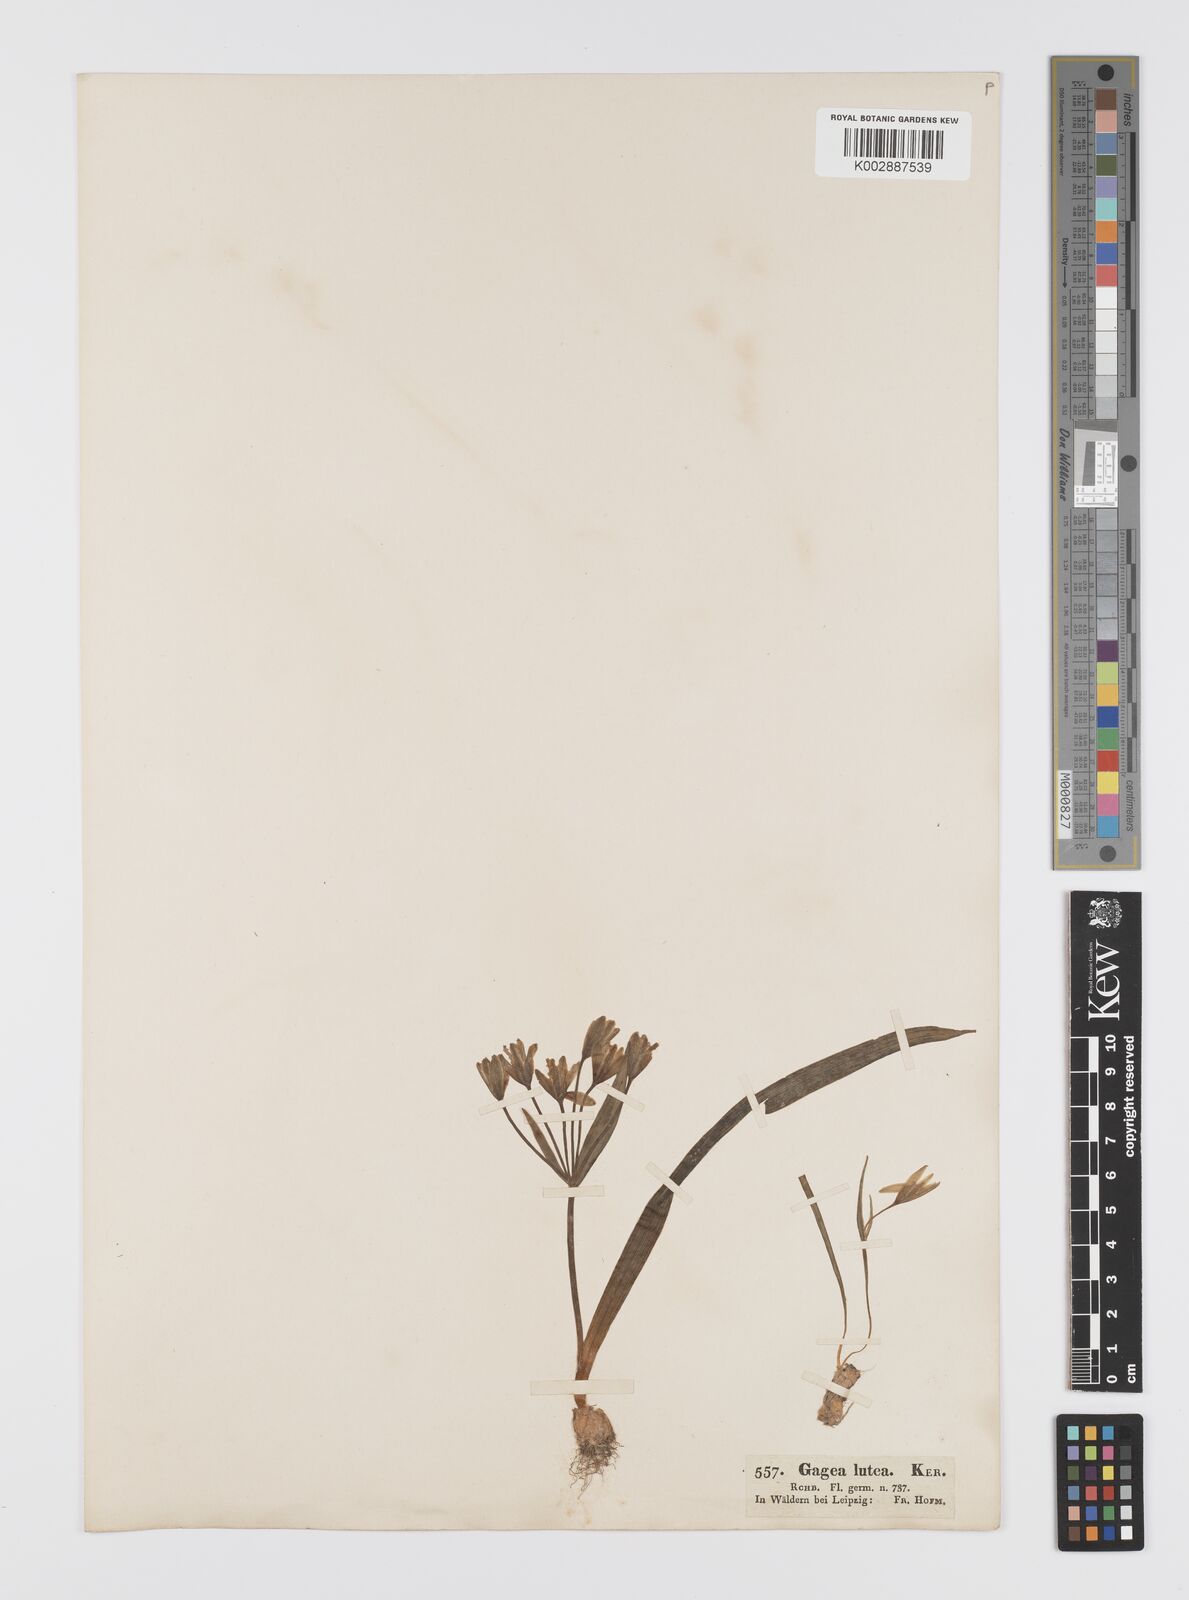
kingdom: Plantae
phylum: Tracheophyta
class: Liliopsida
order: Liliales
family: Liliaceae
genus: Gagea
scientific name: Gagea lutea
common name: Yellow star-of-bethlehem
